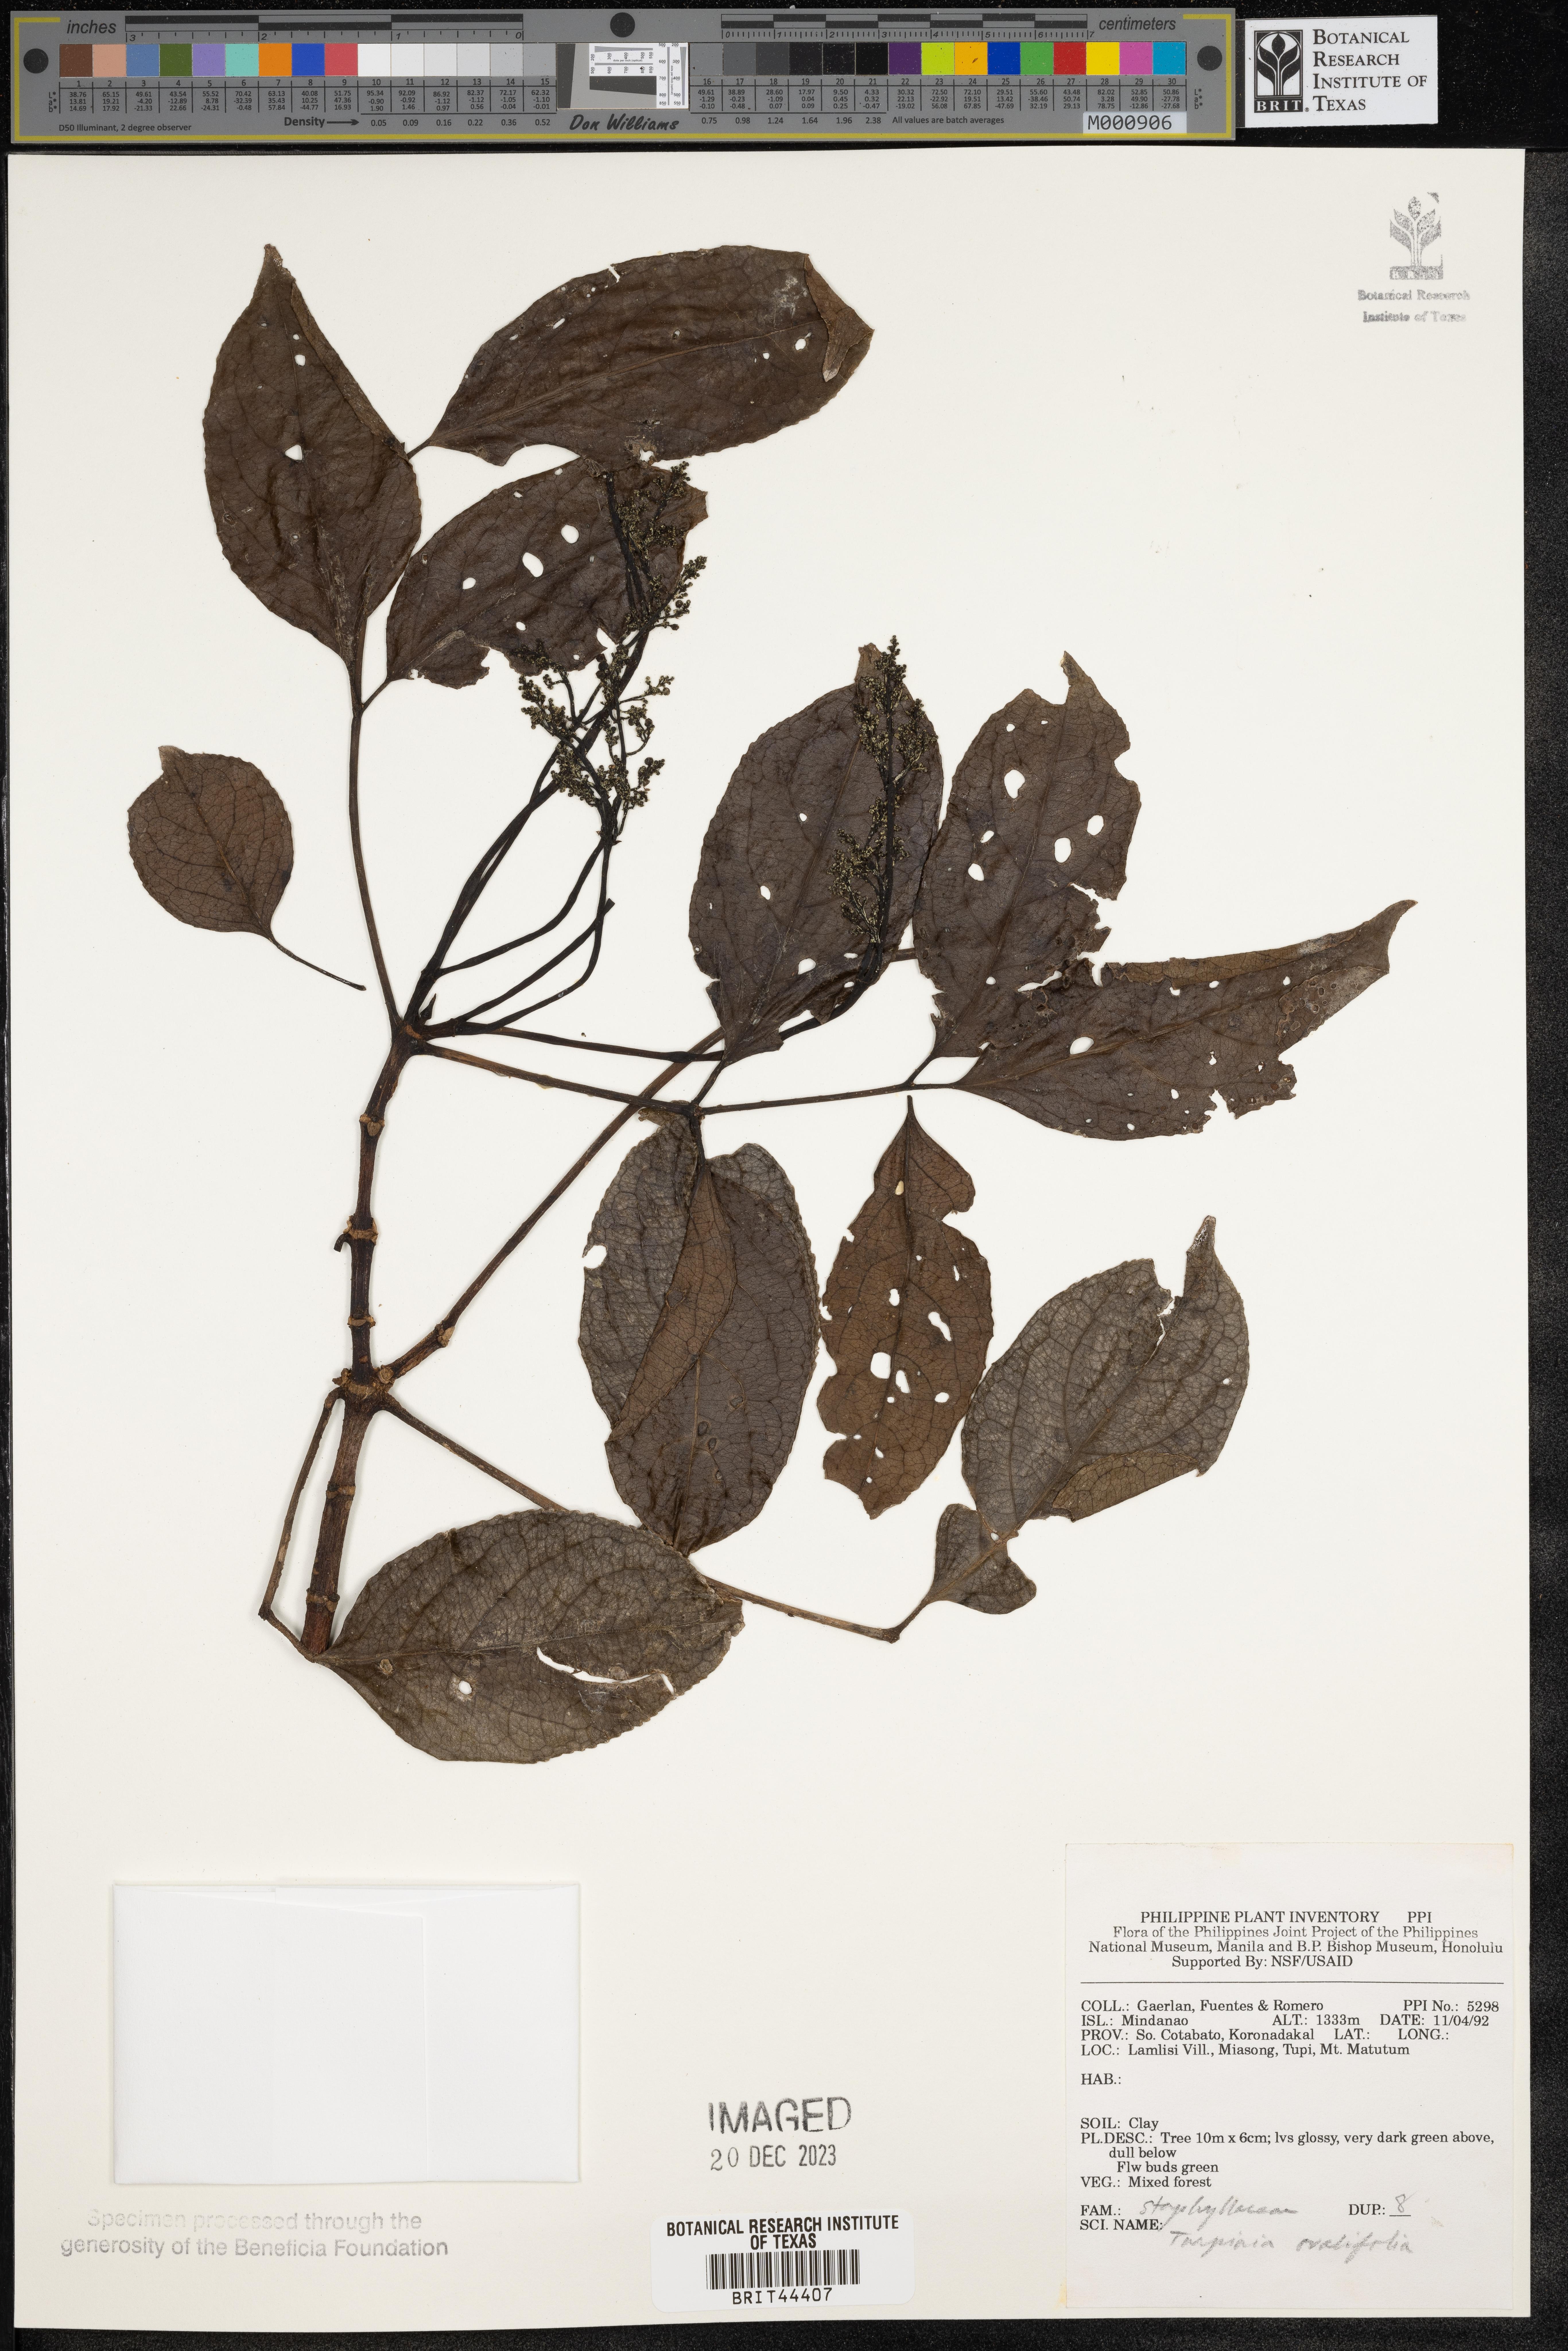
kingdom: Plantae
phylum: Tracheophyta
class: Magnoliopsida
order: Crossosomatales
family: Staphyleaceae
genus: Dalrympelea
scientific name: Dalrympelea trifoliata
